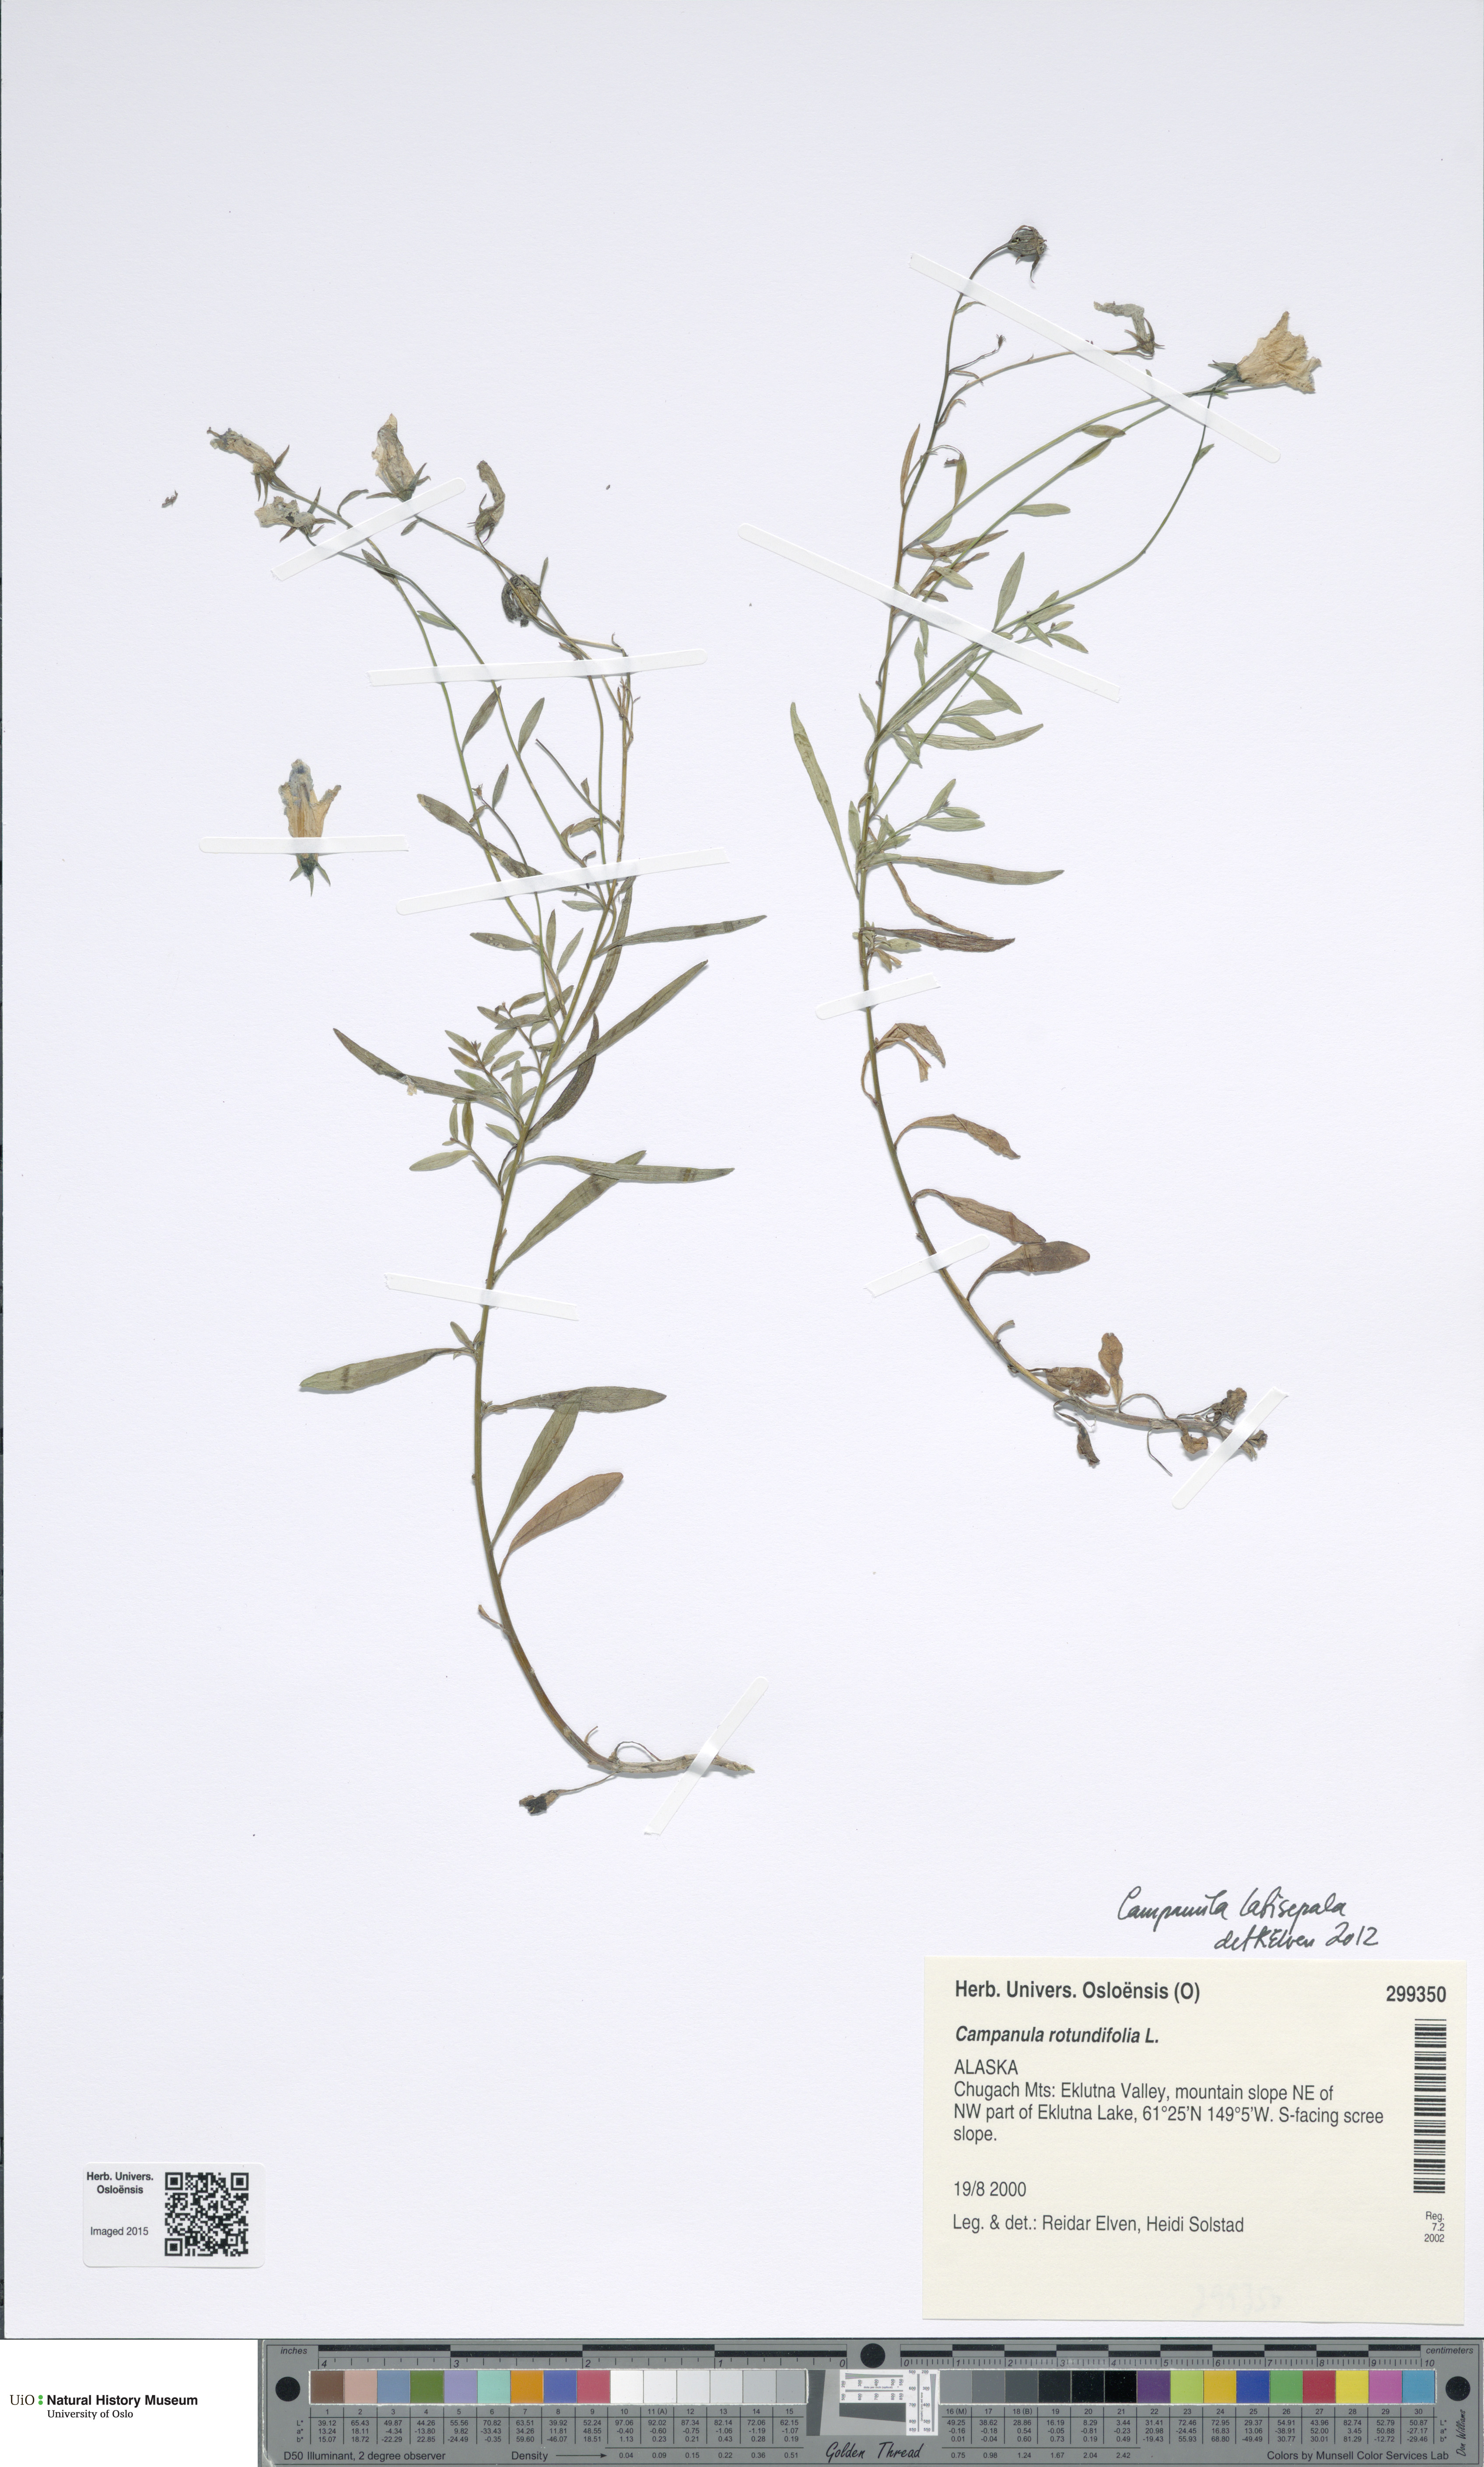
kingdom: Plantae
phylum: Tracheophyta
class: Magnoliopsida
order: Asterales
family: Campanulaceae
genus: Campanula
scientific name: Campanula rotundifolia
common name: Harebell
